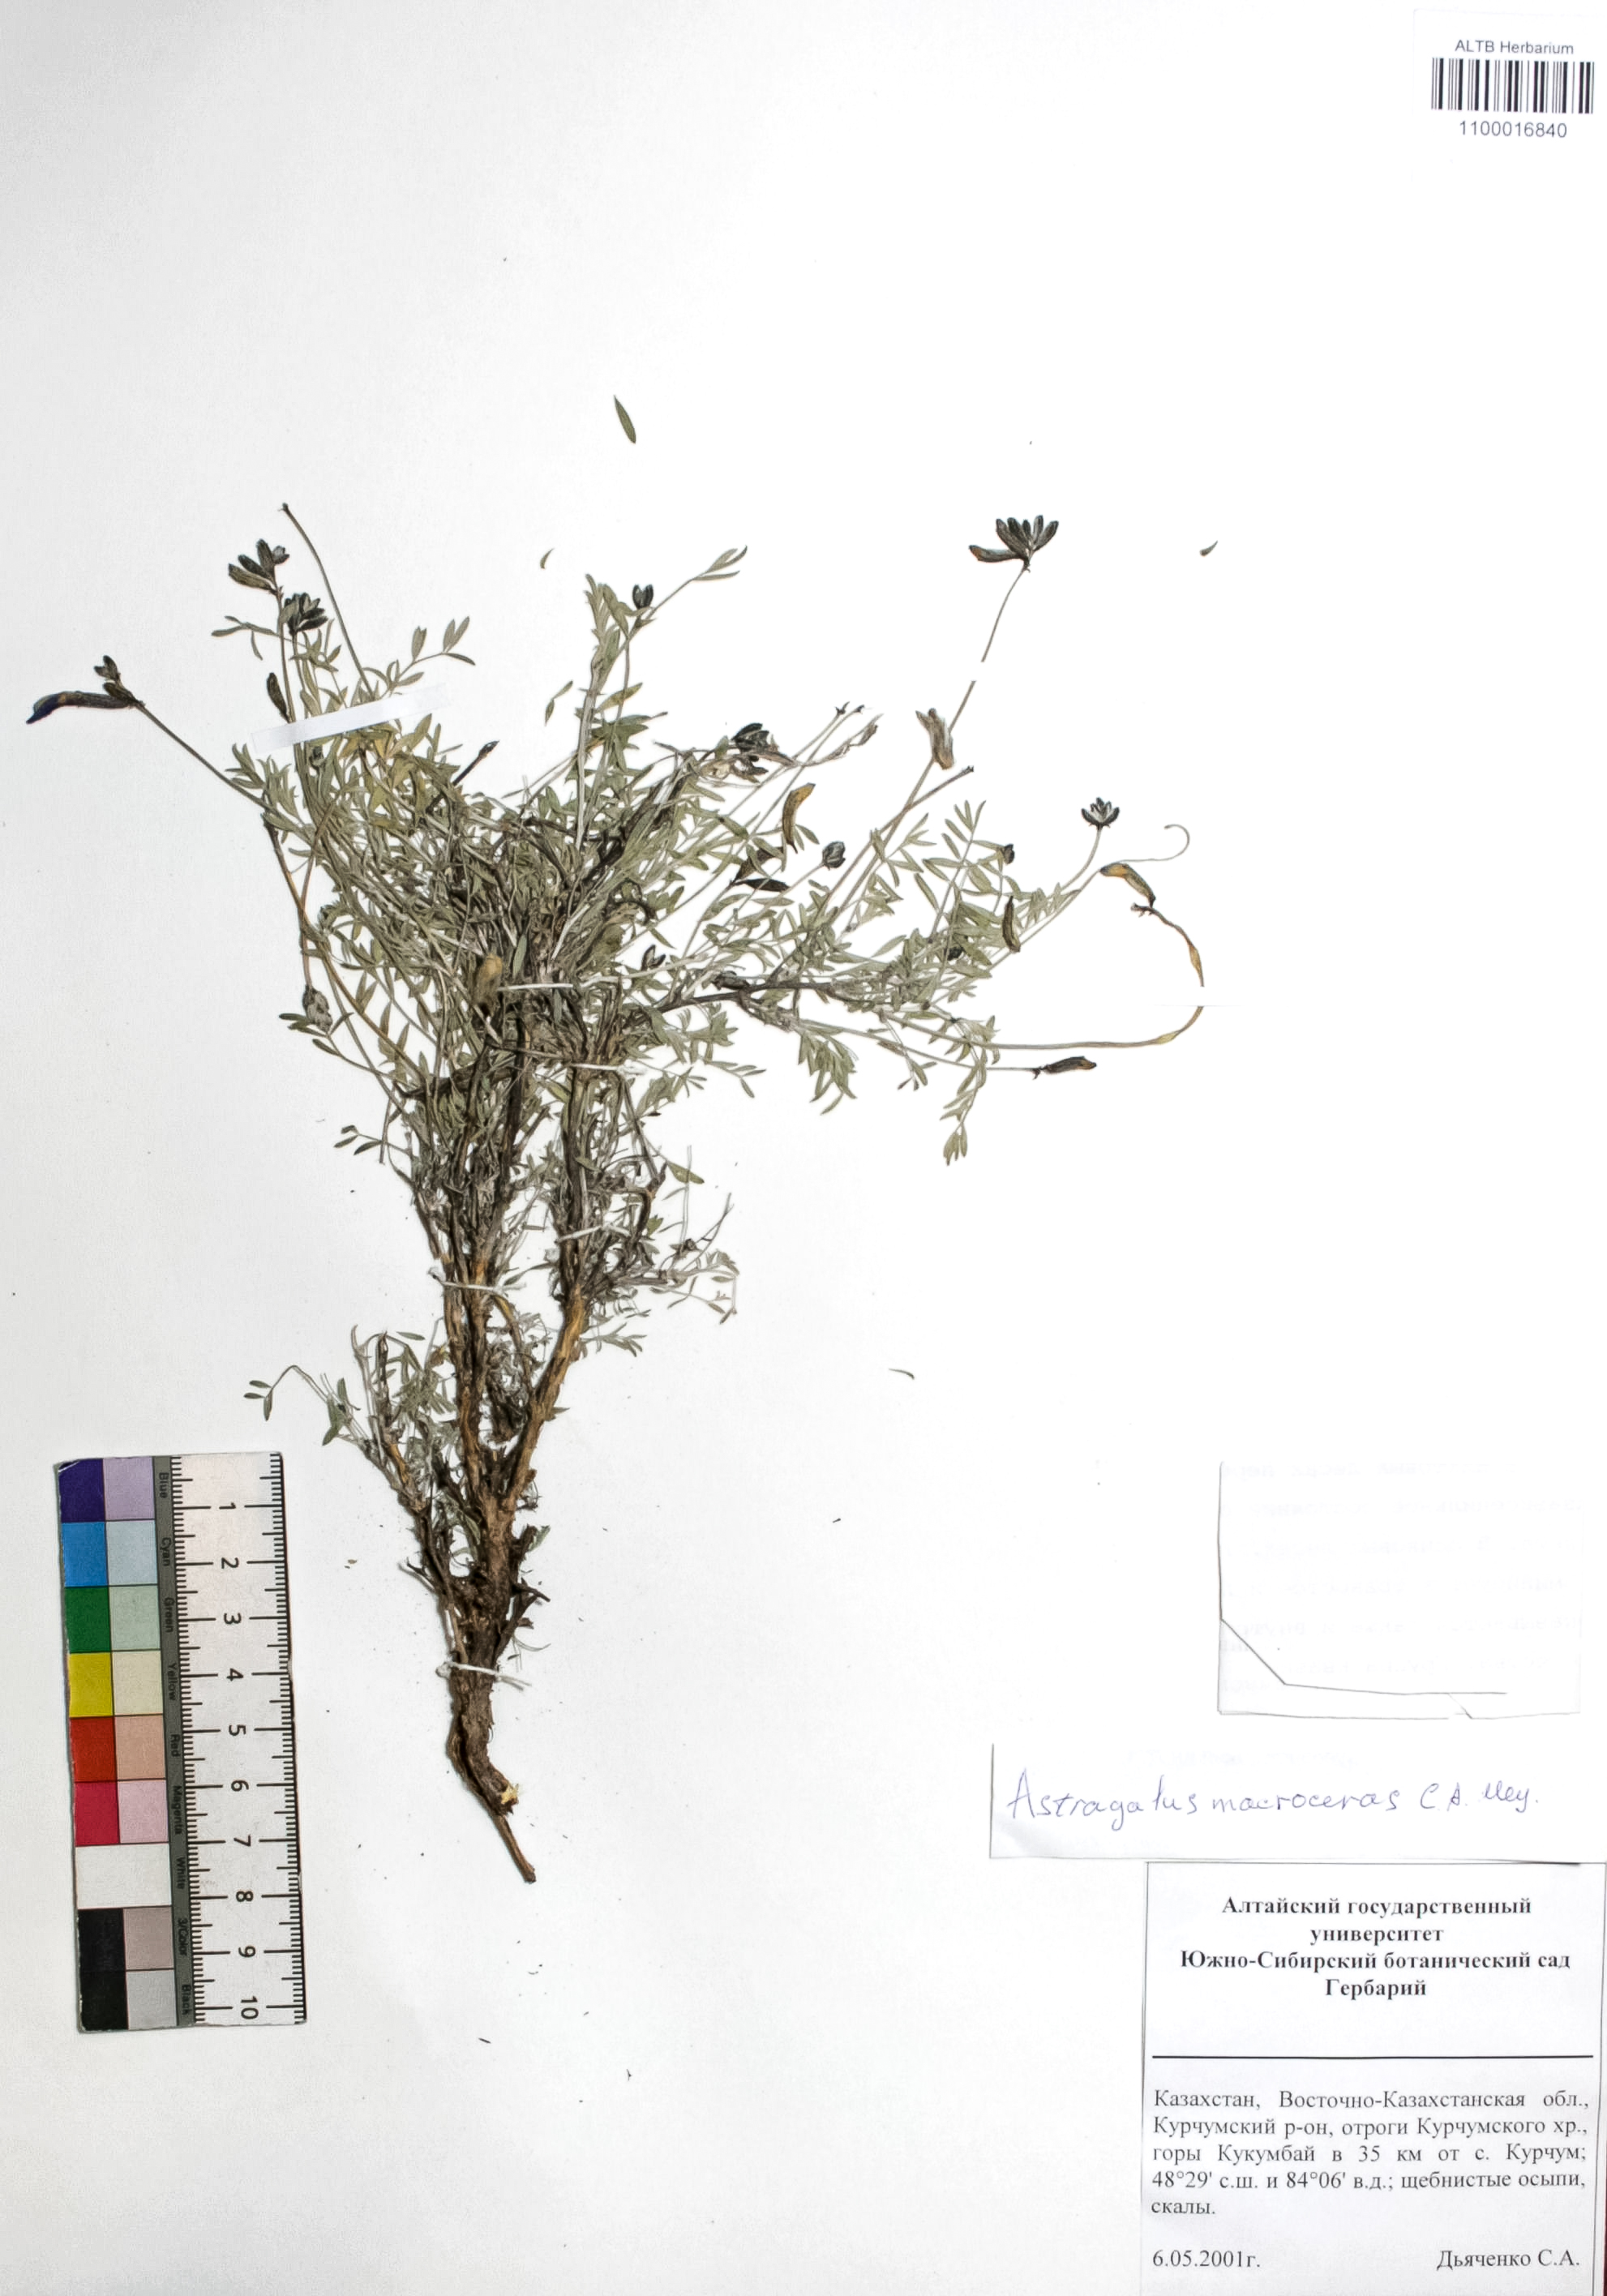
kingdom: Plantae
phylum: Tracheophyta
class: Magnoliopsida
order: Fabales
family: Fabaceae
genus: Astragalus
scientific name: Astragalus macroceras
